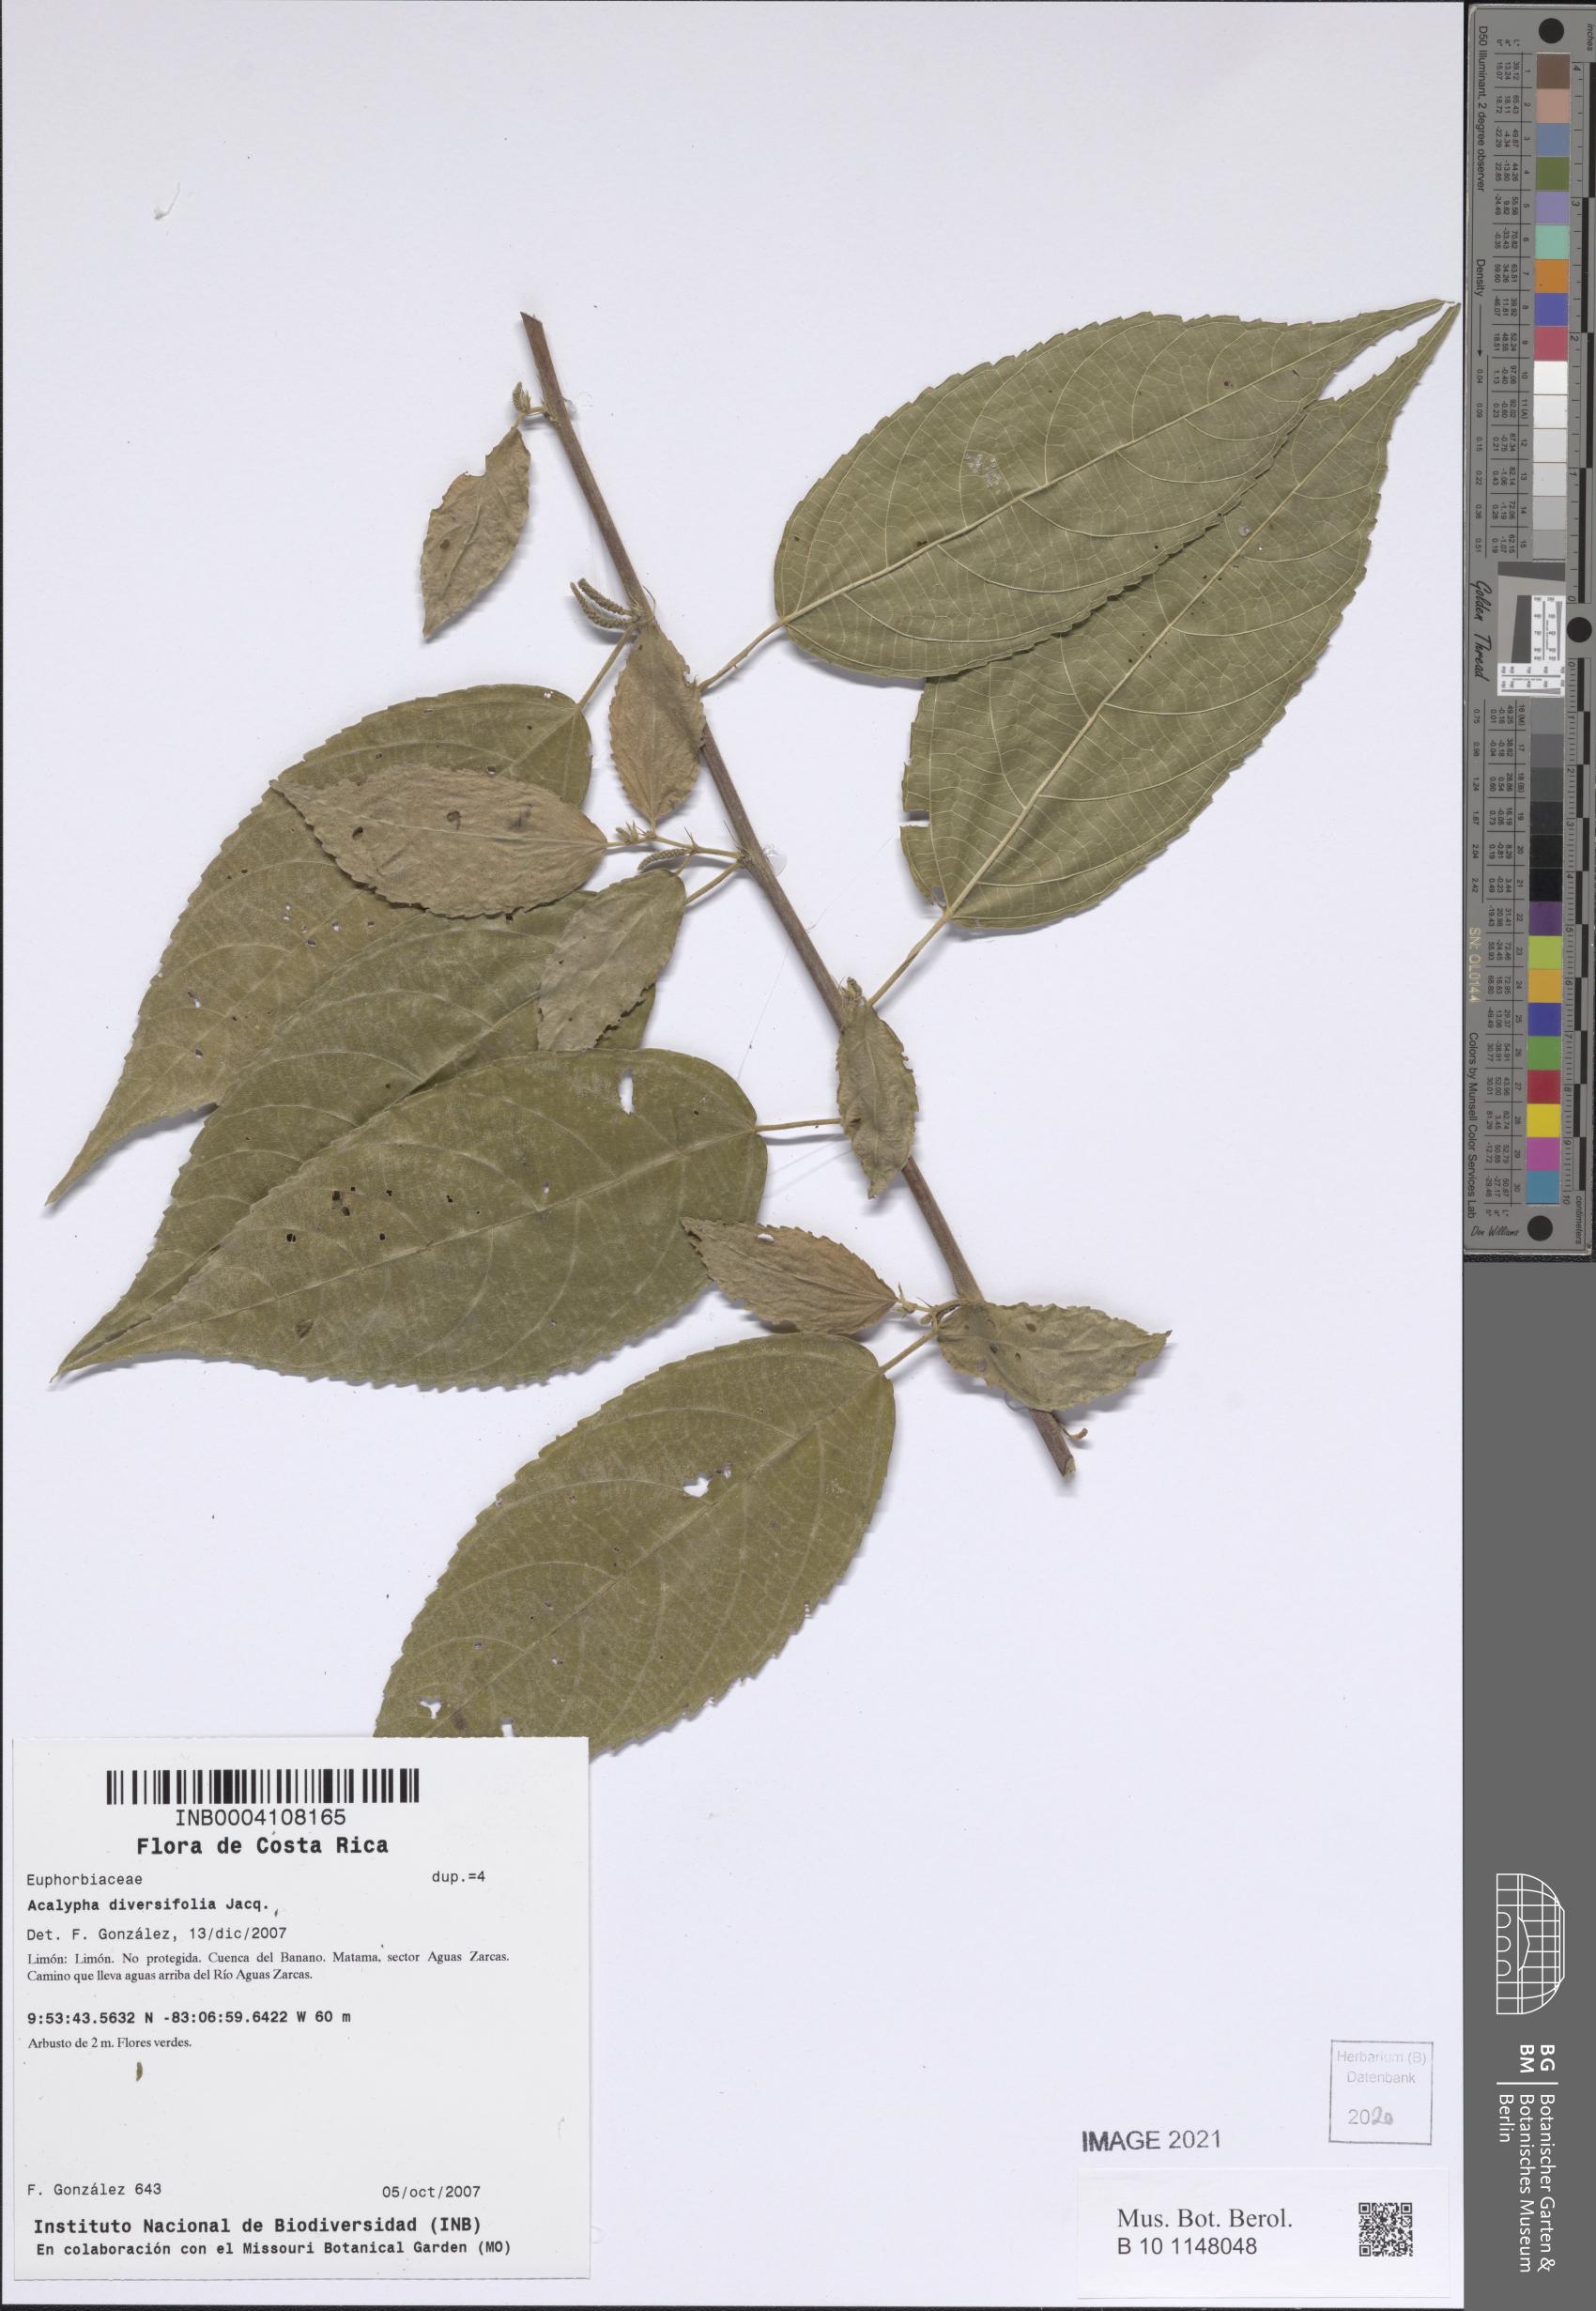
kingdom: Plantae
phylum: Tracheophyta
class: Magnoliopsida
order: Malpighiales
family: Euphorbiaceae
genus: Acalypha
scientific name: Acalypha diversifolia
